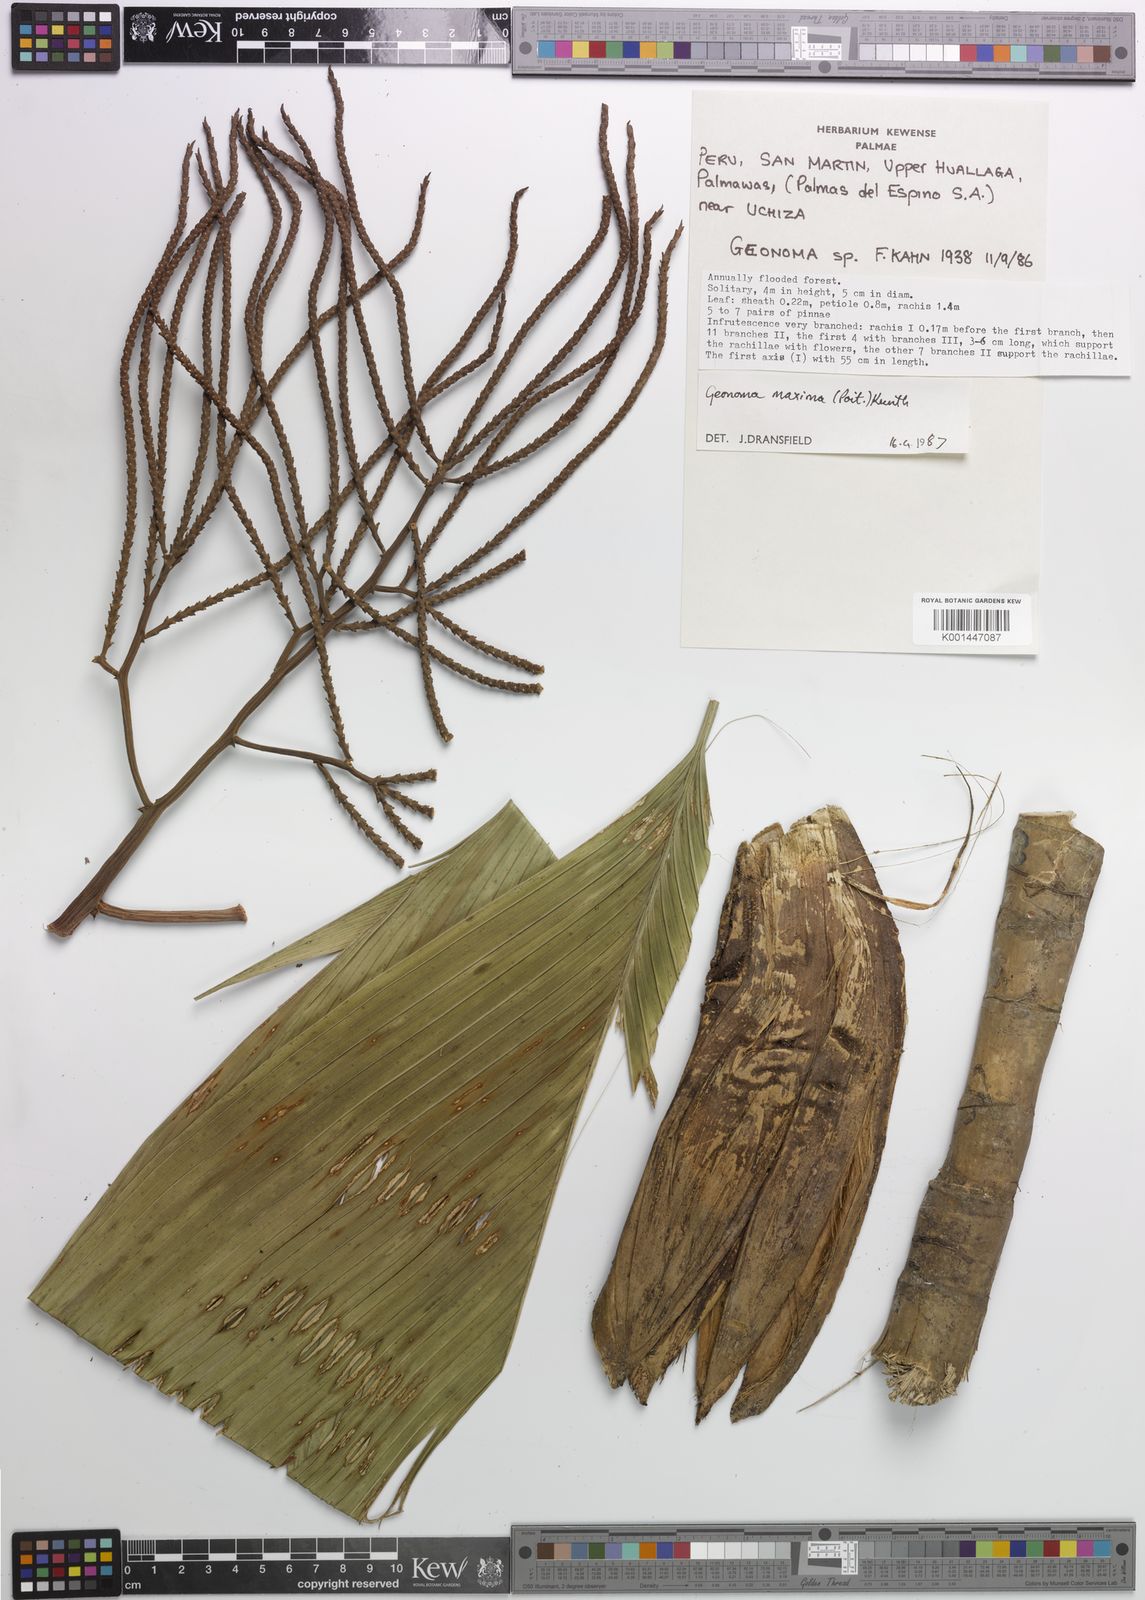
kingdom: Plantae
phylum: Tracheophyta
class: Liliopsida
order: Arecales
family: Arecaceae
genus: Geonoma
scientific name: Geonoma maxima
